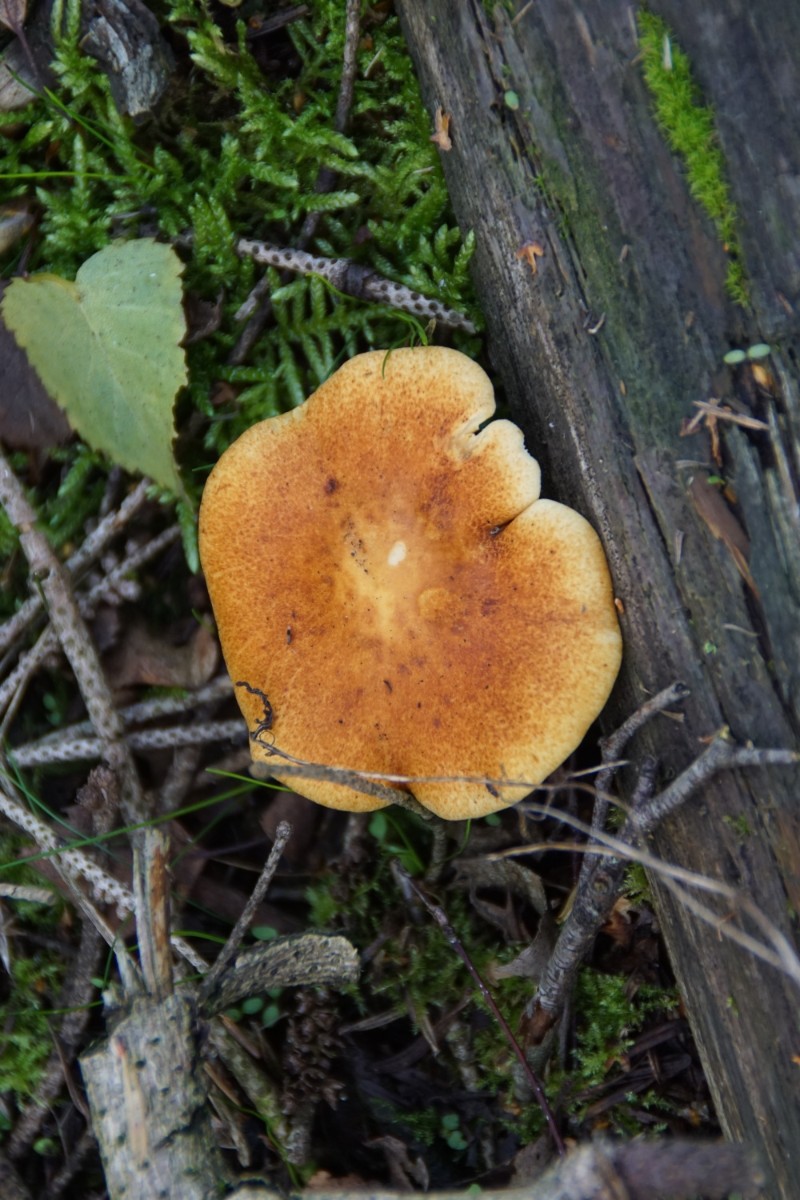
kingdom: Fungi
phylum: Basidiomycota
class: Agaricomycetes
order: Agaricales
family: Hymenogastraceae
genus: Gymnopilus
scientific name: Gymnopilus penetrans
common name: plettet flammehat
